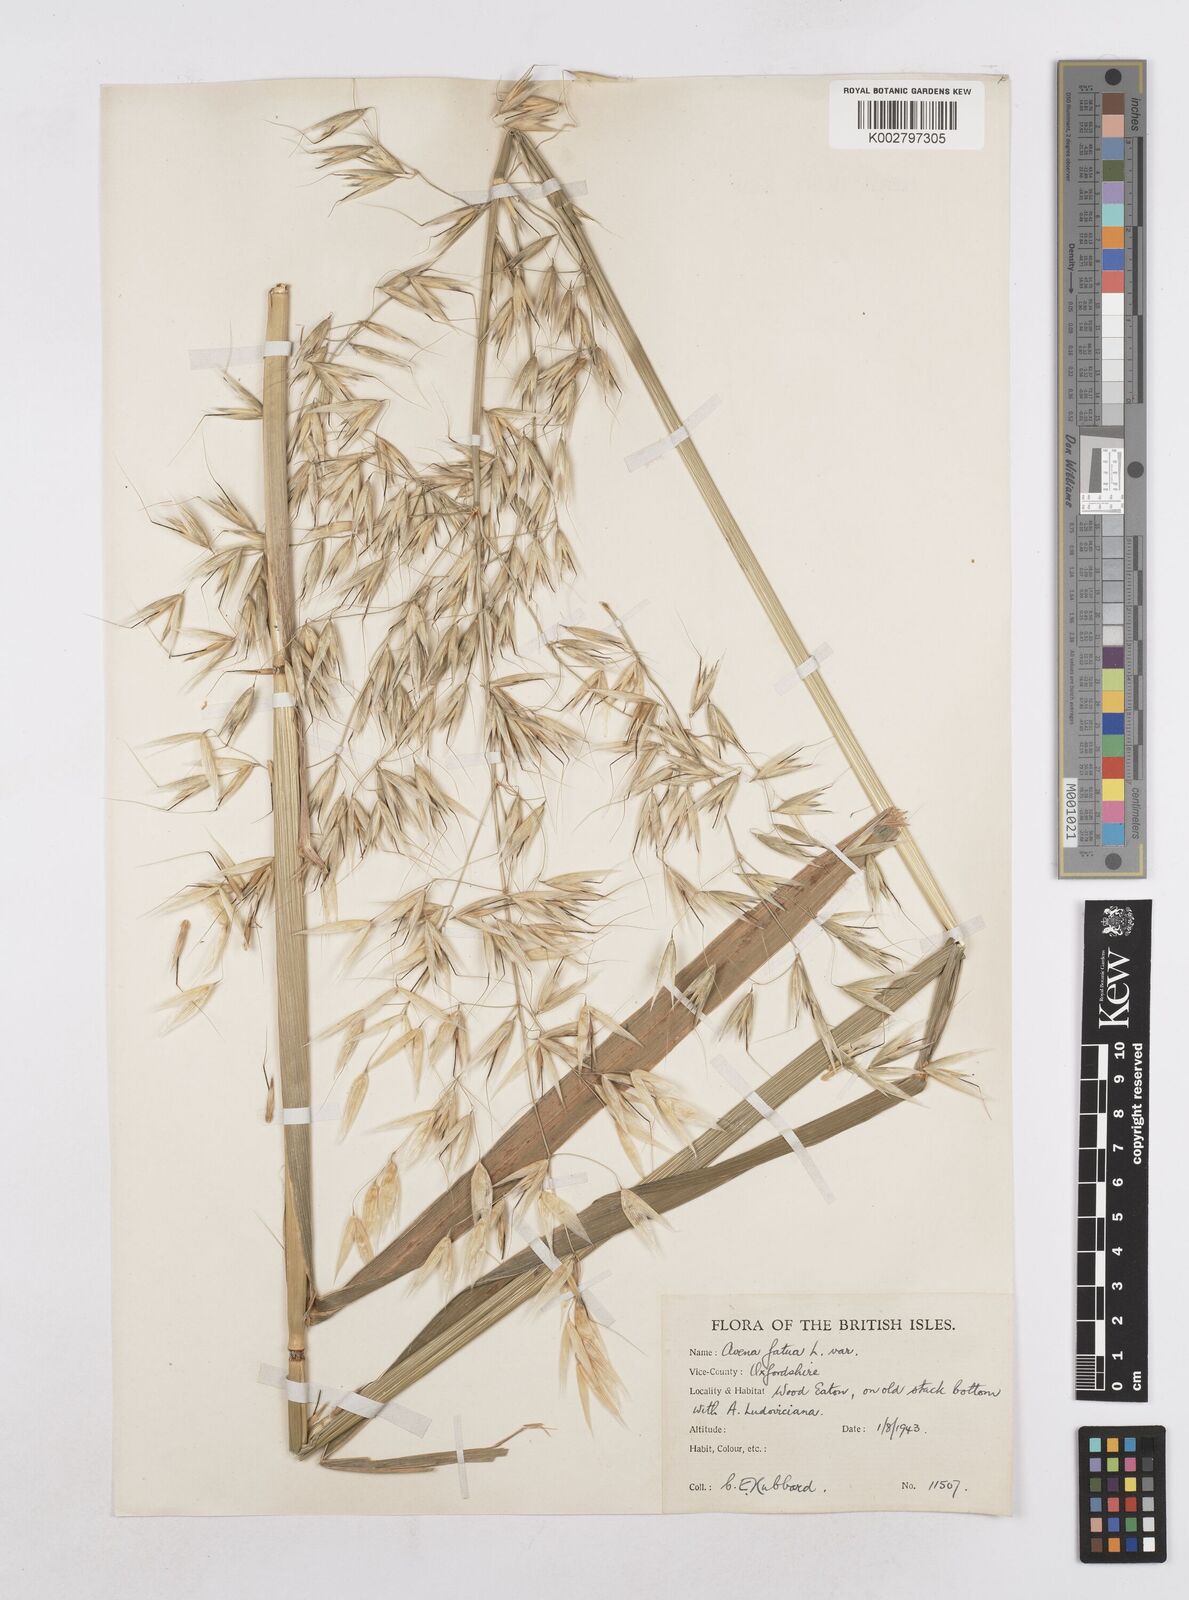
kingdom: Plantae
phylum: Tracheophyta
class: Liliopsida
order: Poales
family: Poaceae
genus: Avena
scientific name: Avena fatua
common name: Wild oat
